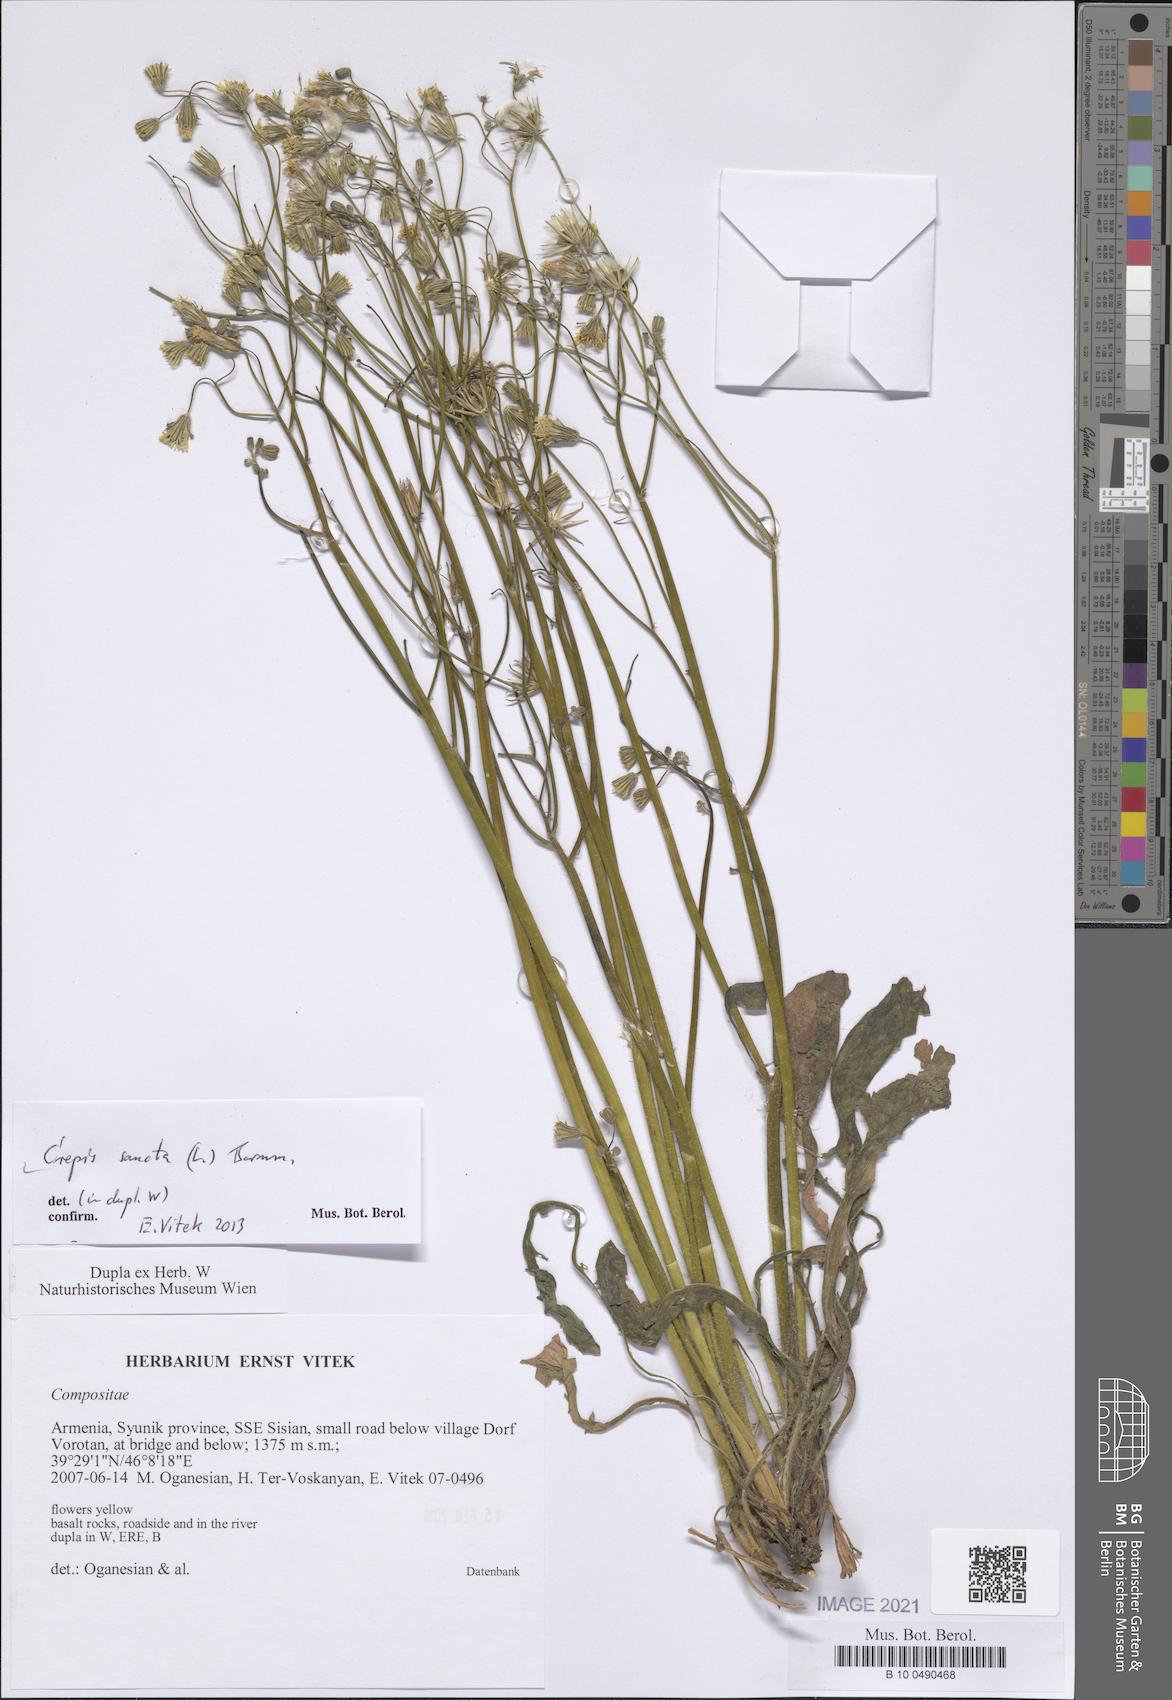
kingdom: Plantae
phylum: Tracheophyta
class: Magnoliopsida
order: Asterales
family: Asteraceae
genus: Crepis
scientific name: Crepis sancta
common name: Hawk's-beard
